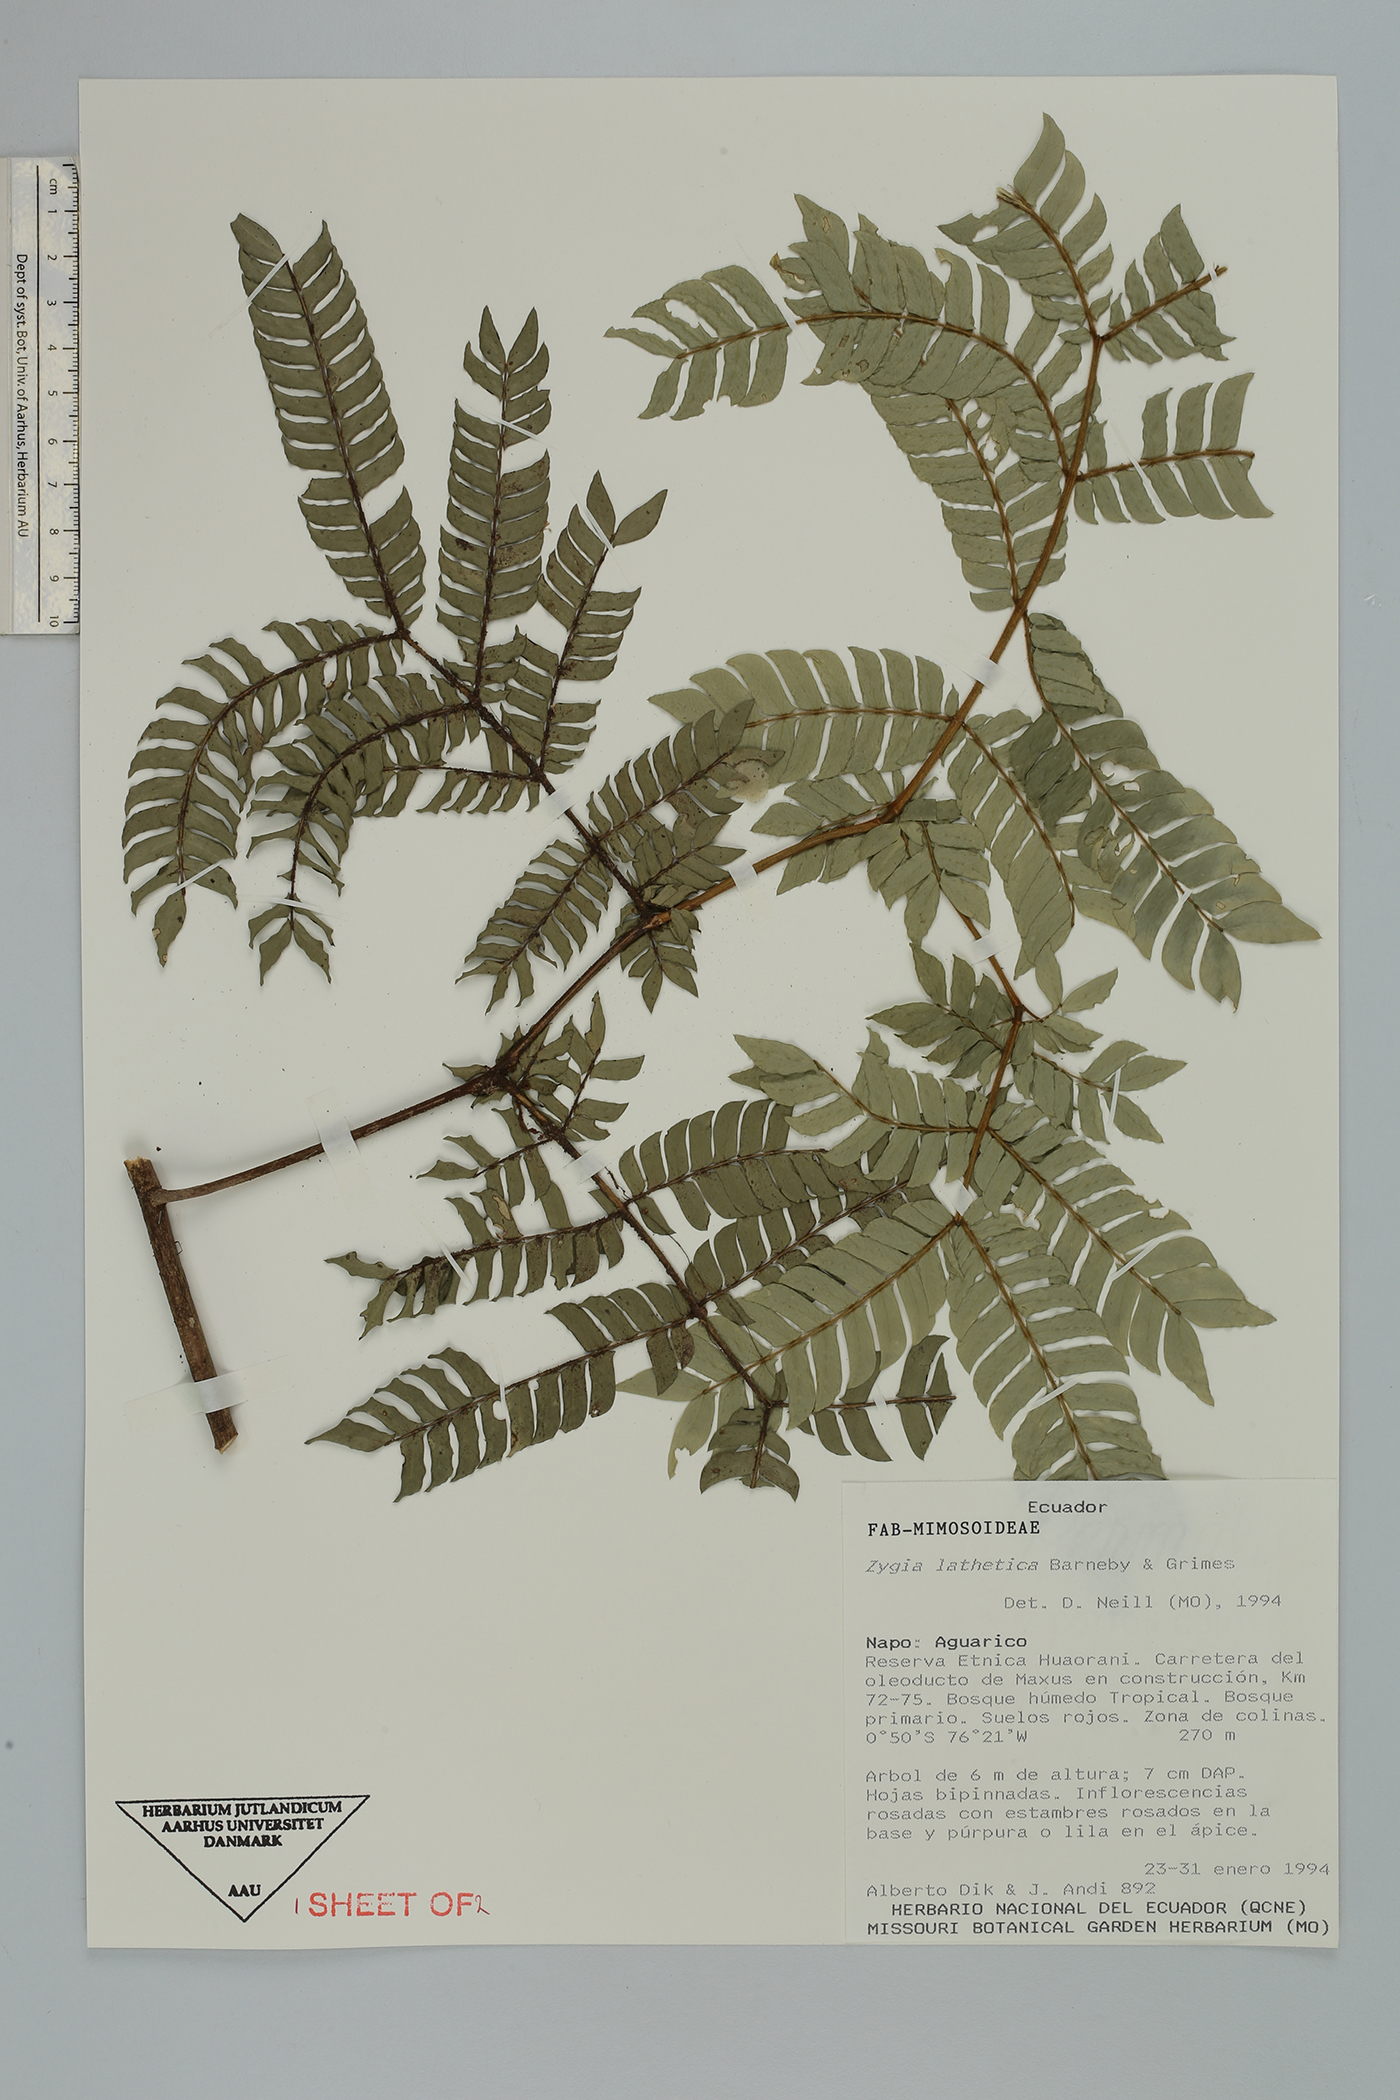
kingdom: Plantae
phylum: Tracheophyta
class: Magnoliopsida
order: Fabales
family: Fabaceae
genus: Zygia
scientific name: Zygia lathetica
